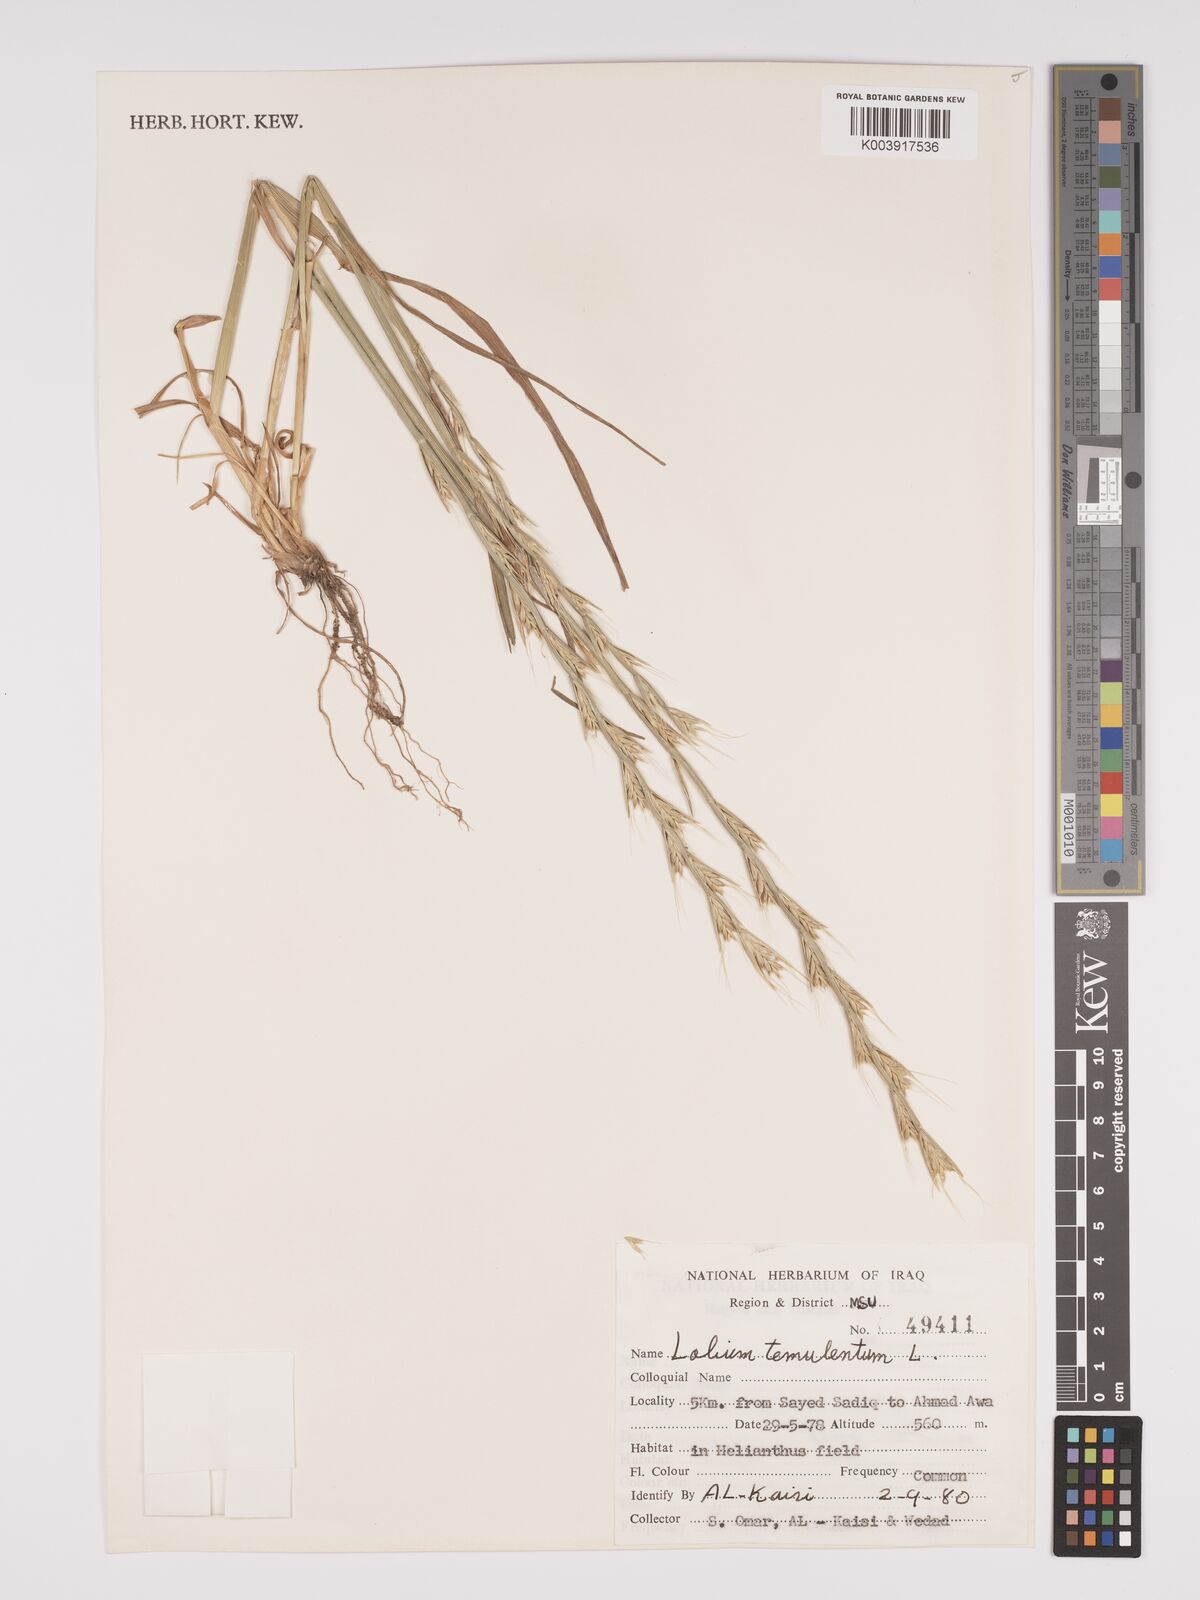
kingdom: Plantae
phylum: Tracheophyta
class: Liliopsida
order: Poales
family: Poaceae
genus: Lolium
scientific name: Lolium temulentum
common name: Darnel
